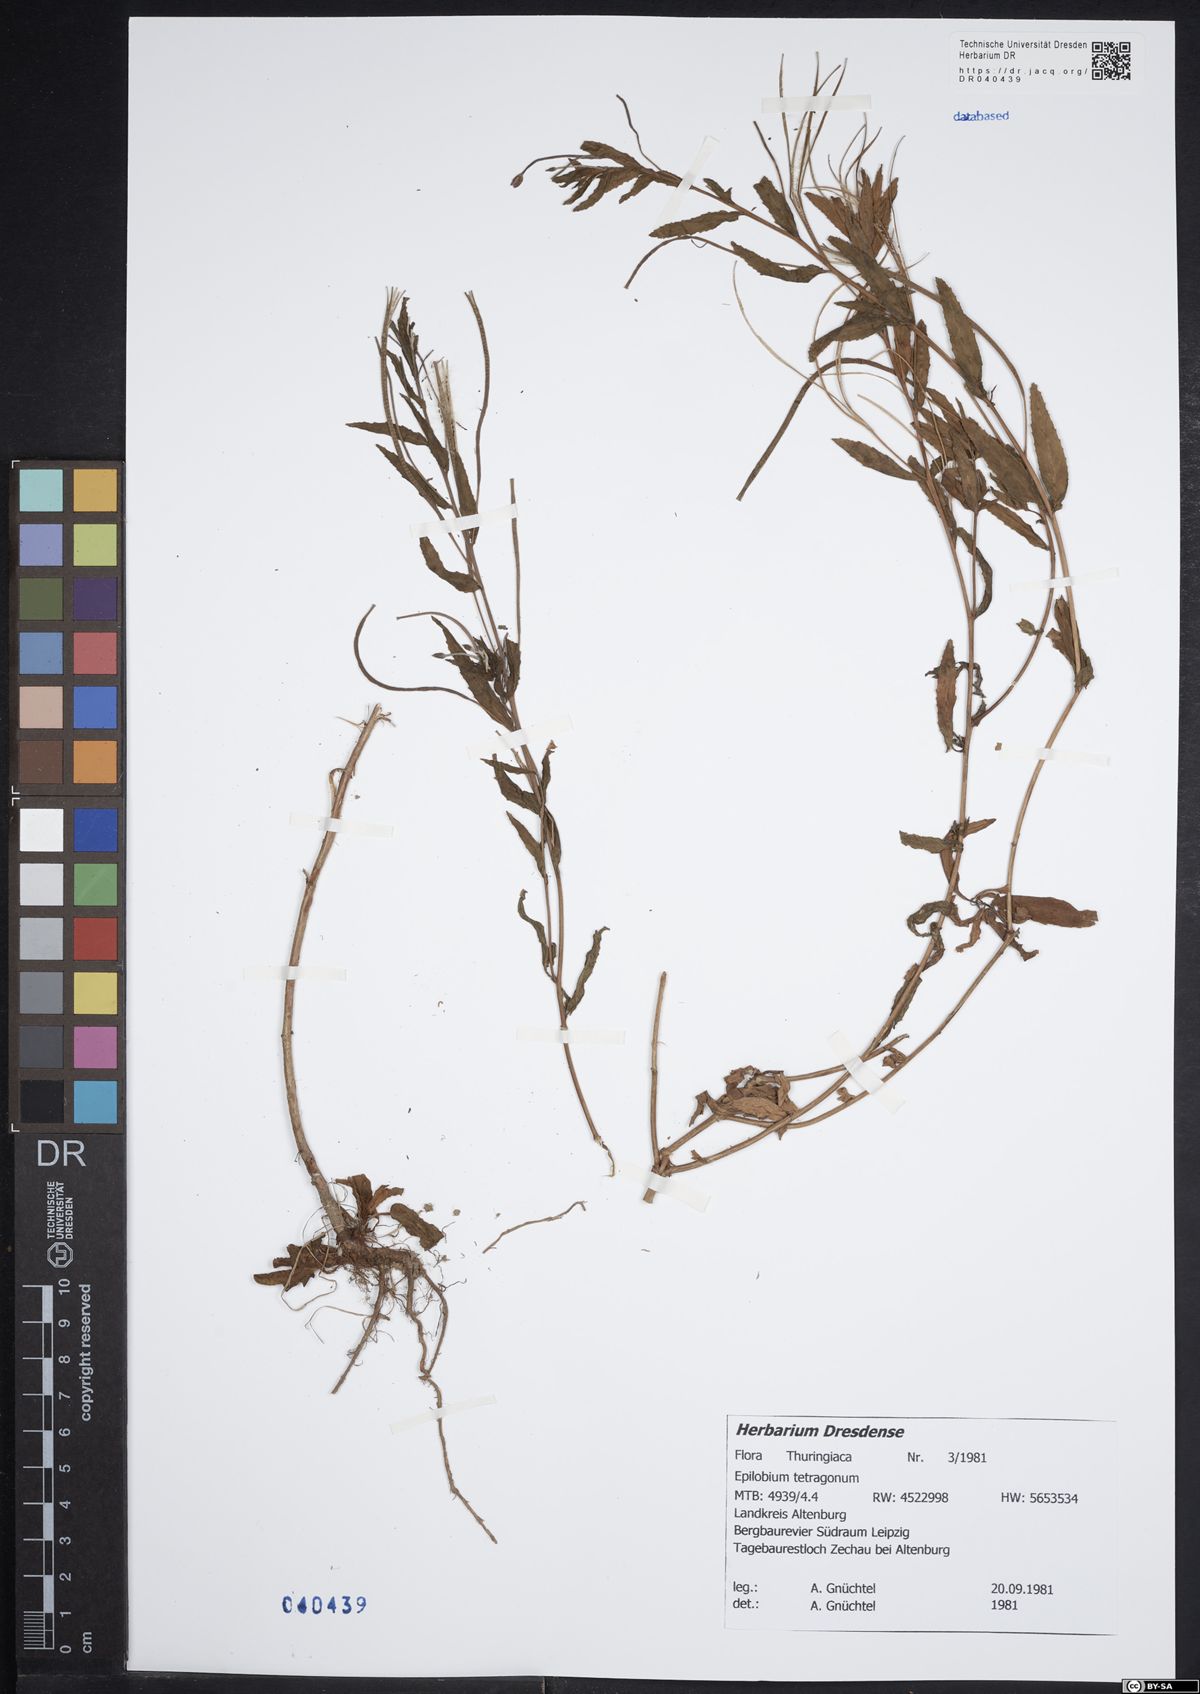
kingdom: Plantae
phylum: Tracheophyta
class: Magnoliopsida
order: Myrtales
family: Onagraceae
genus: Epilobium
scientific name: Epilobium tetragonum
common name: Square-stemmed willowherb
